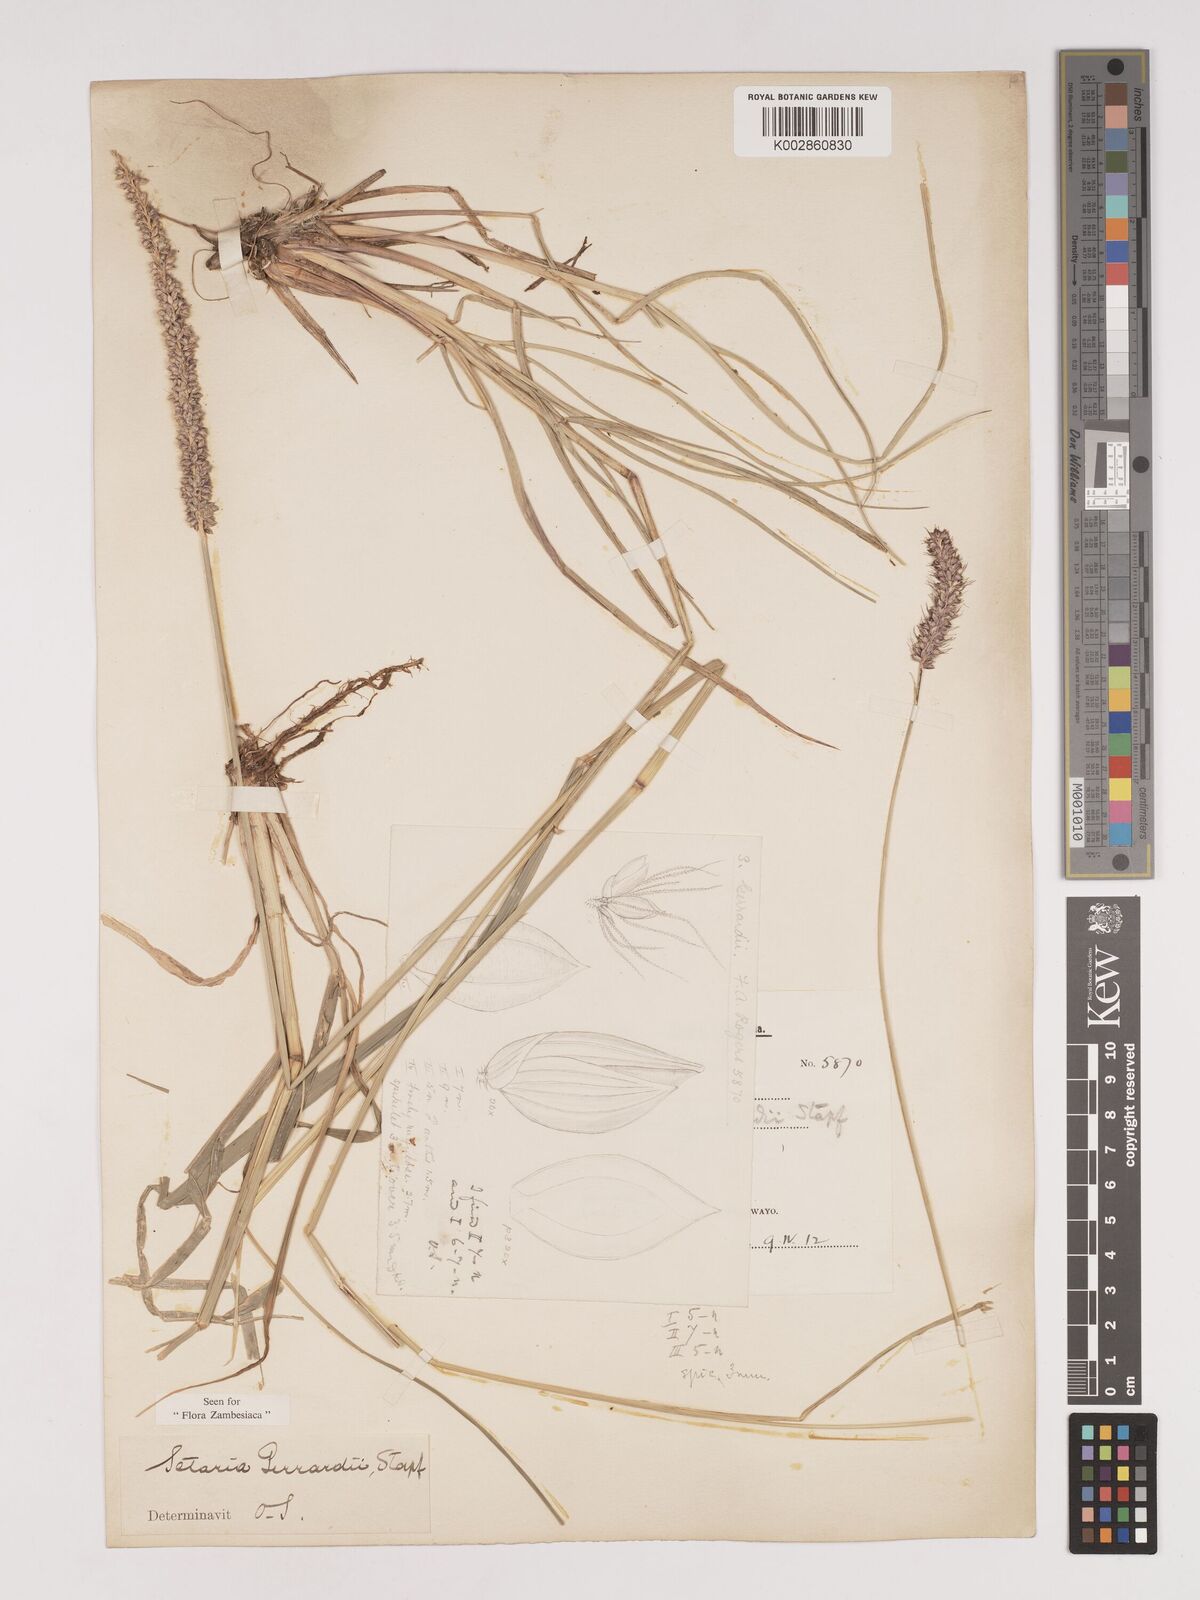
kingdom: Plantae
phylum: Tracheophyta
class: Liliopsida
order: Poales
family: Poaceae
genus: Setaria
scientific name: Setaria incrassata
